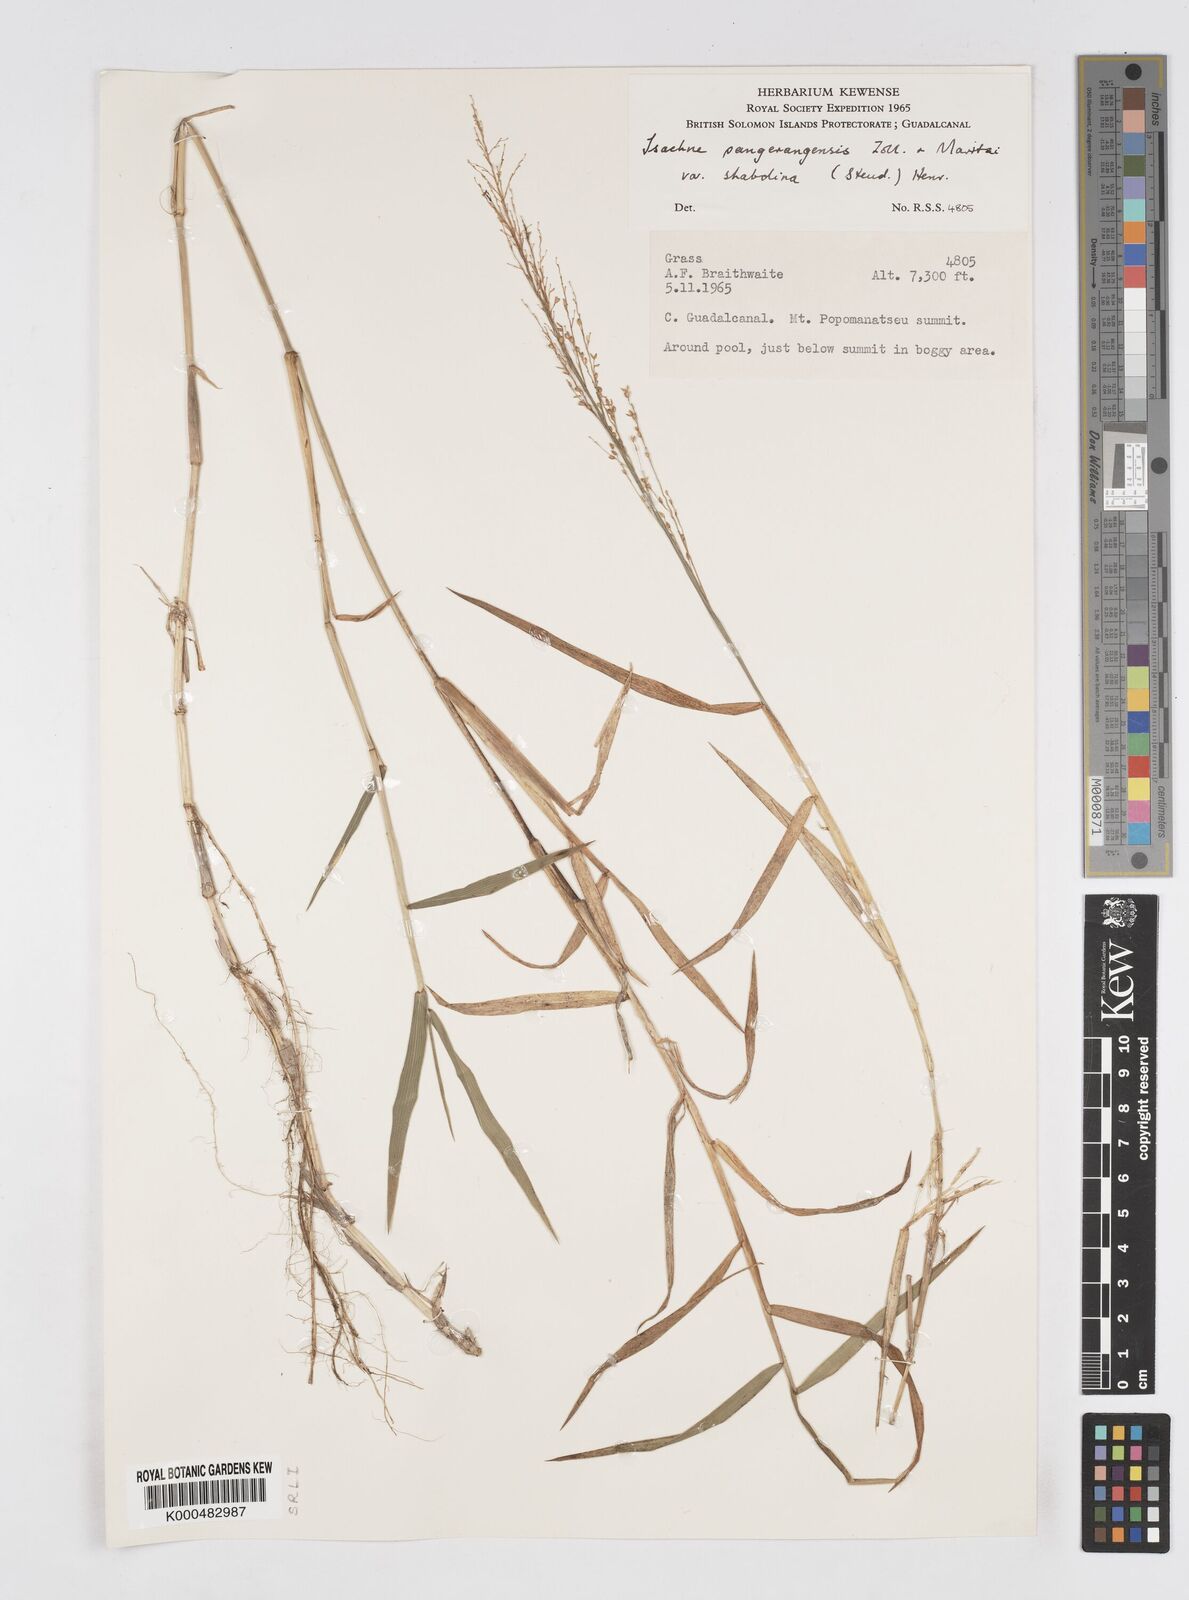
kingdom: Plantae
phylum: Tracheophyta
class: Liliopsida
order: Poales
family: Poaceae
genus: Isachne
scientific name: Isachne villosa
